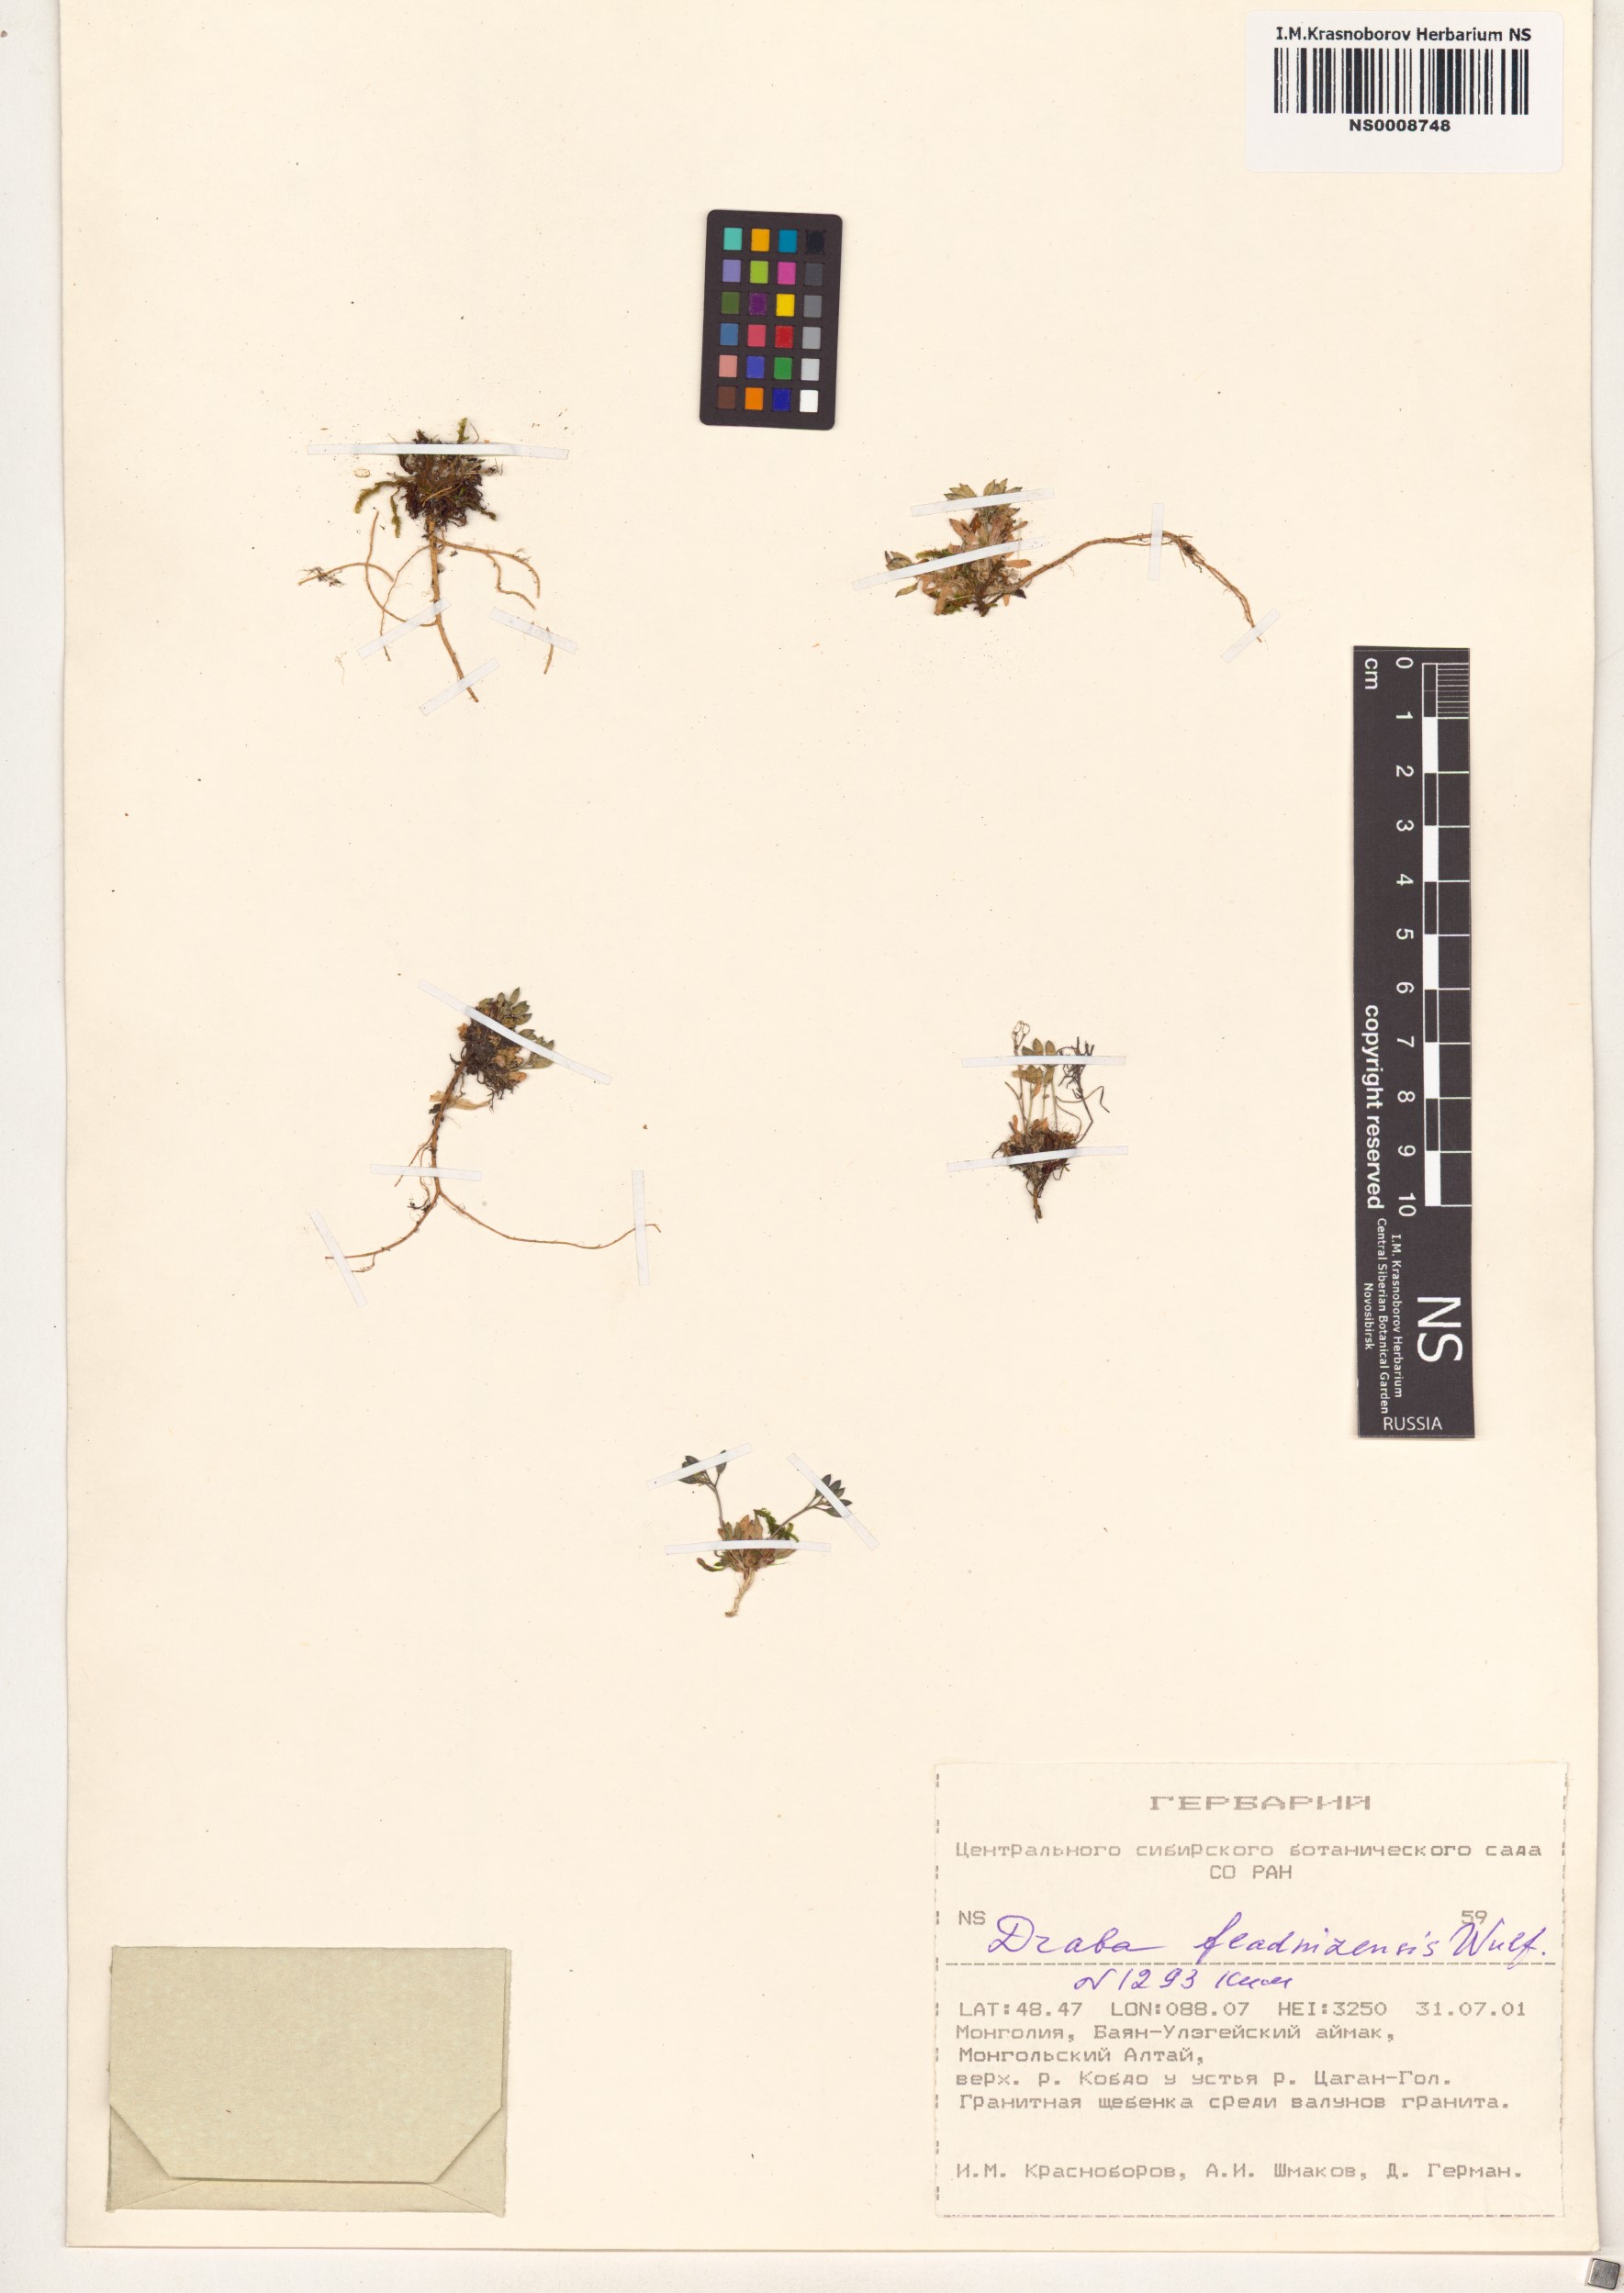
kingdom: Plantae
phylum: Tracheophyta
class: Magnoliopsida
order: Brassicales
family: Brassicaceae
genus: Draba
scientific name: Draba fladnizensis
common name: Austrian draba
